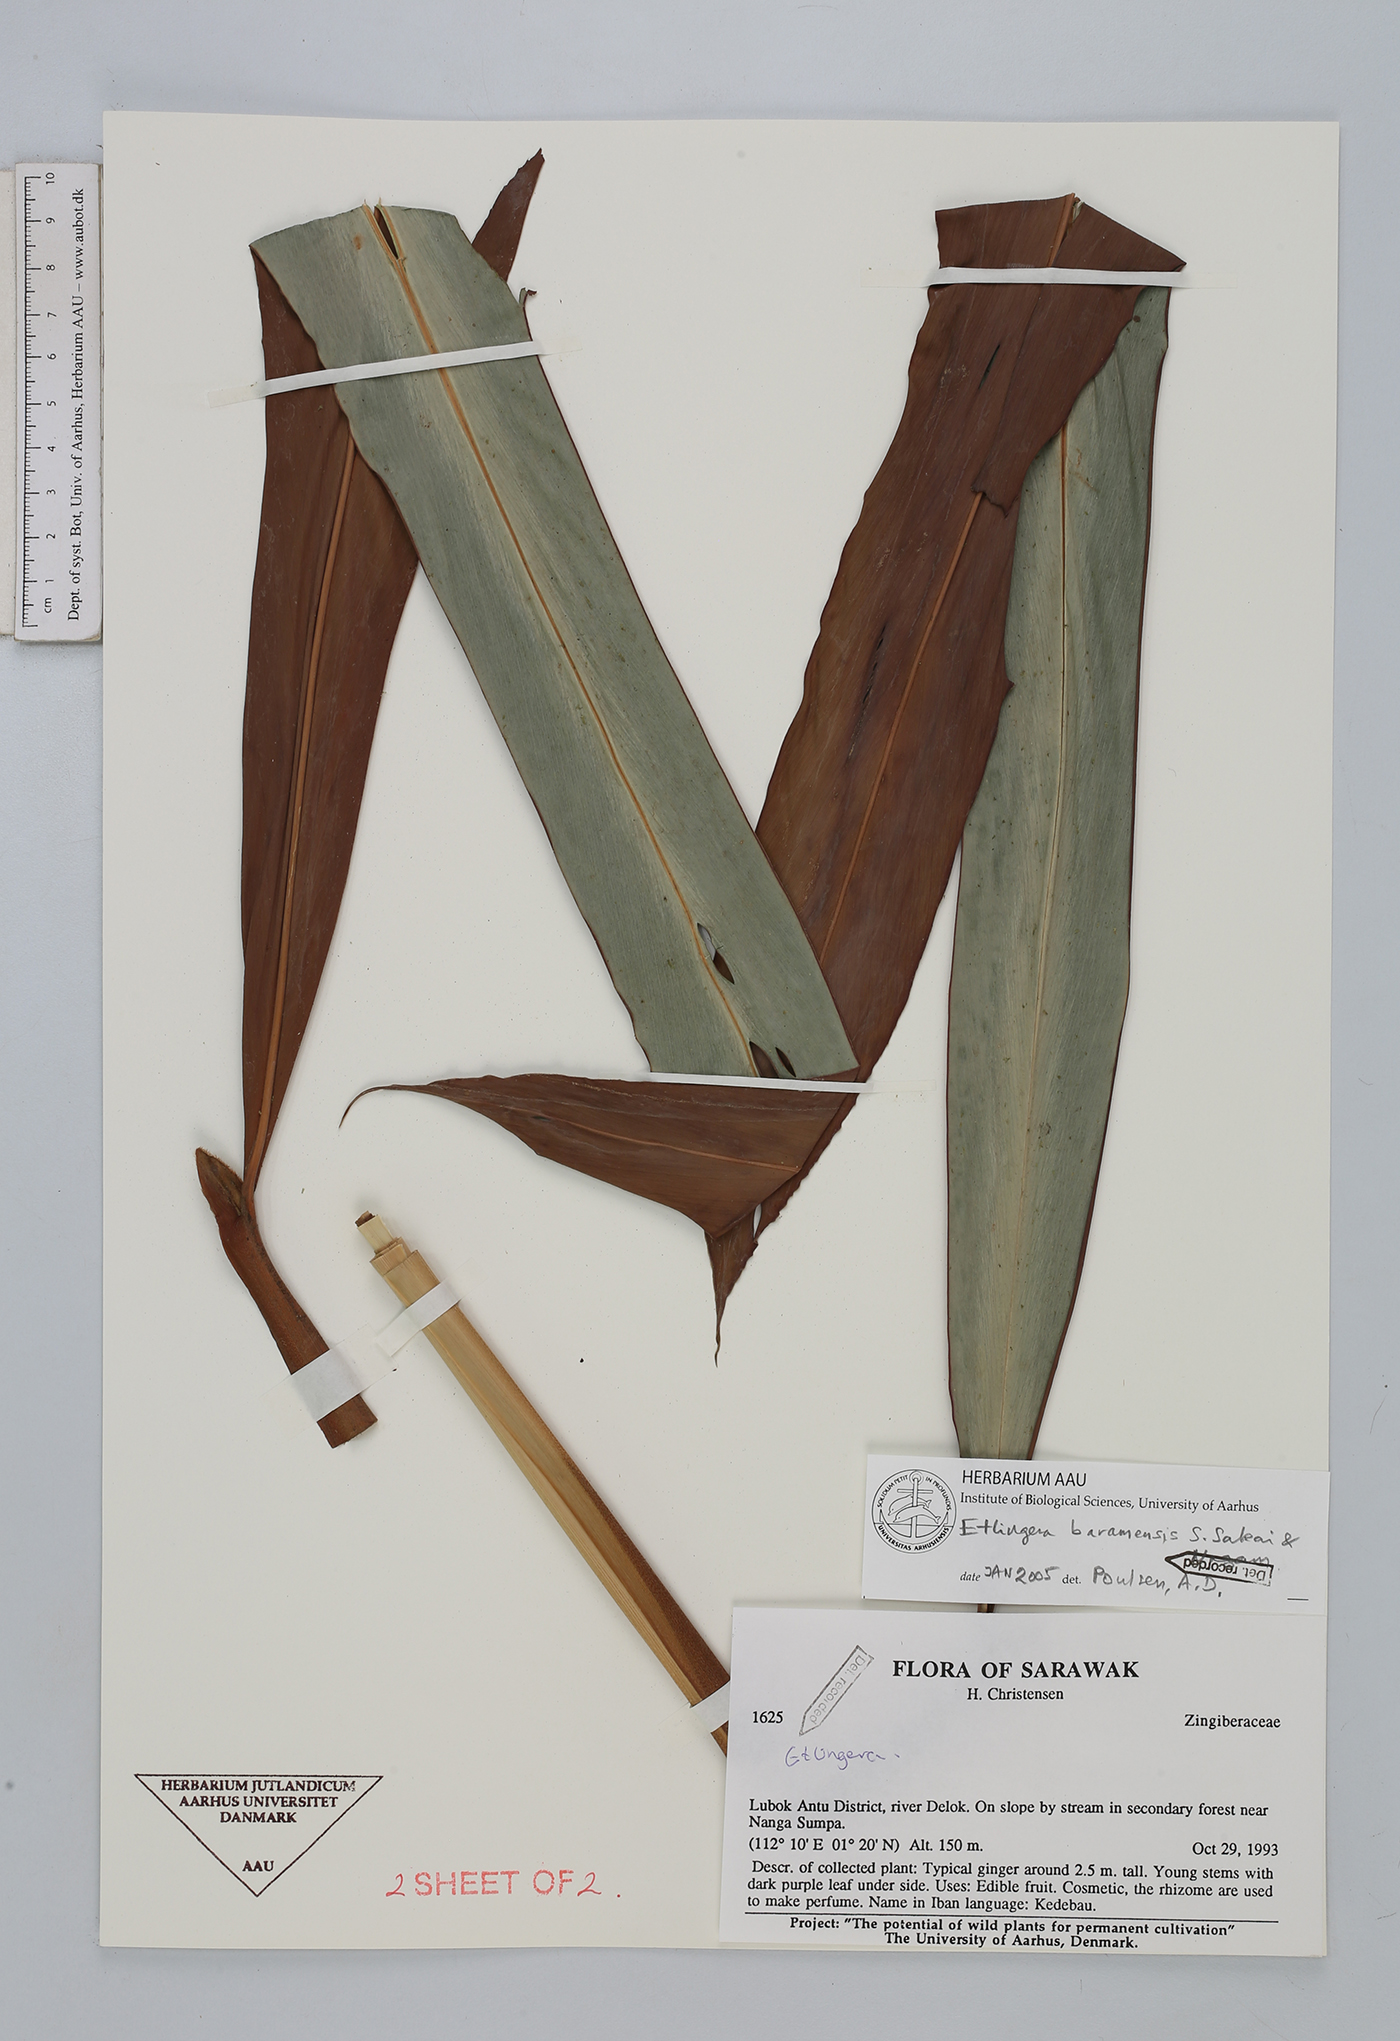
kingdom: Plantae
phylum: Tracheophyta
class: Liliopsida
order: Zingiberales
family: Zingiberaceae
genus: Etlingera
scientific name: Etlingera baramensis
